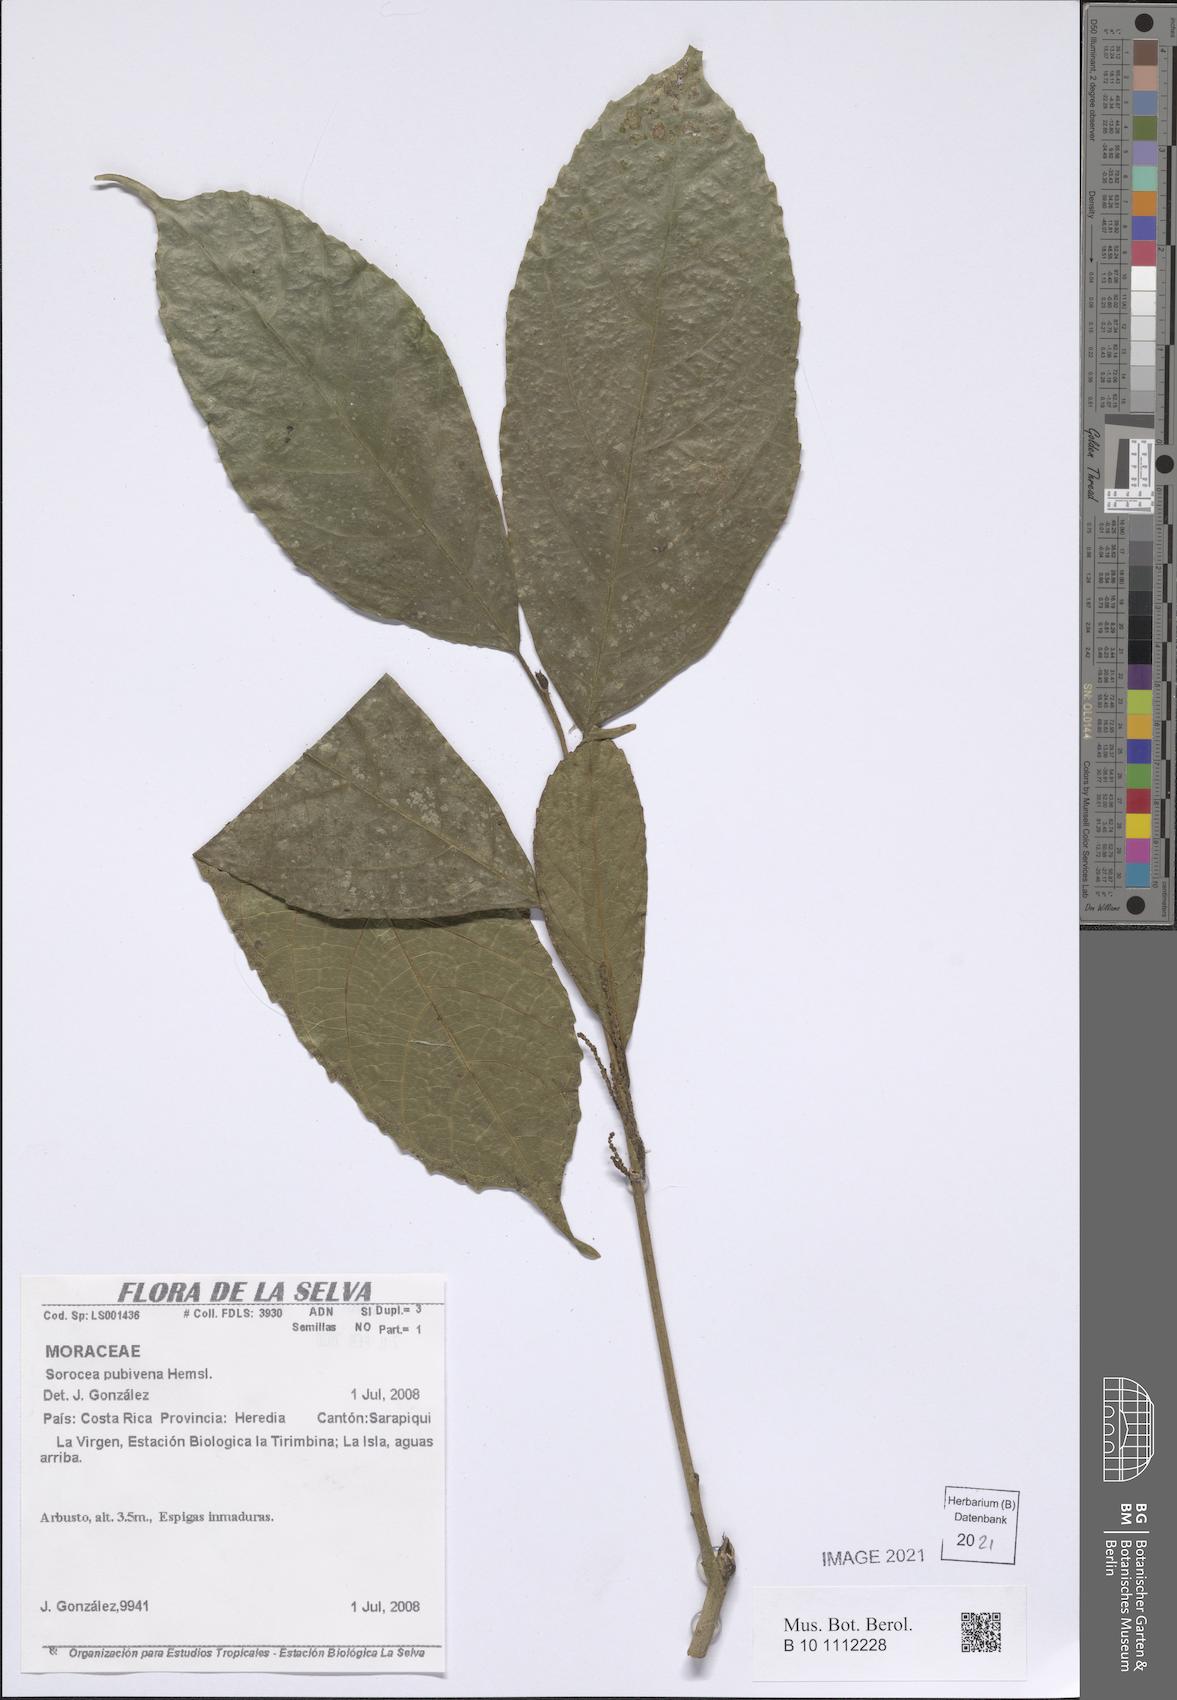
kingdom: Plantae
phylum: Tracheophyta
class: Magnoliopsida
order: Rosales
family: Moraceae
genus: Sorocea
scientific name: Sorocea pubivena
